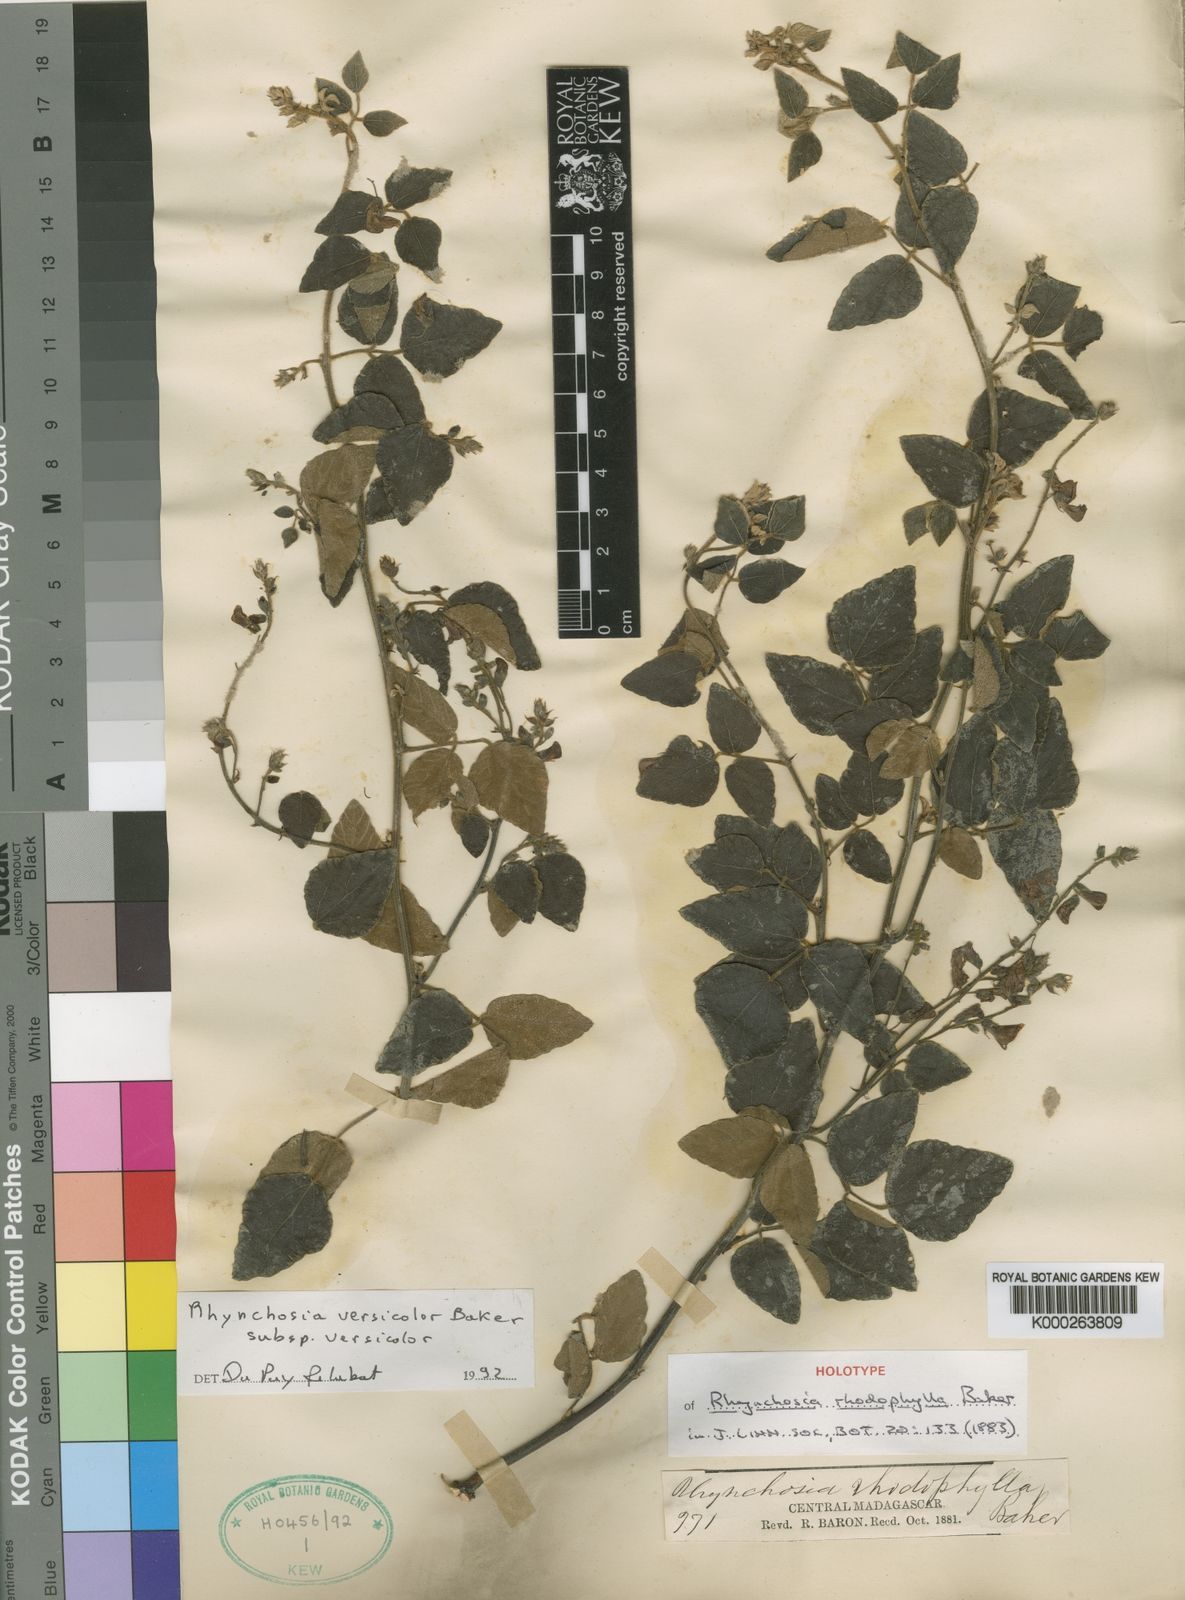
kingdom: Plantae
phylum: Tracheophyta
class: Magnoliopsida
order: Fabales
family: Fabaceae
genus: Rhynchosia
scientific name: Rhynchosia versicolor
